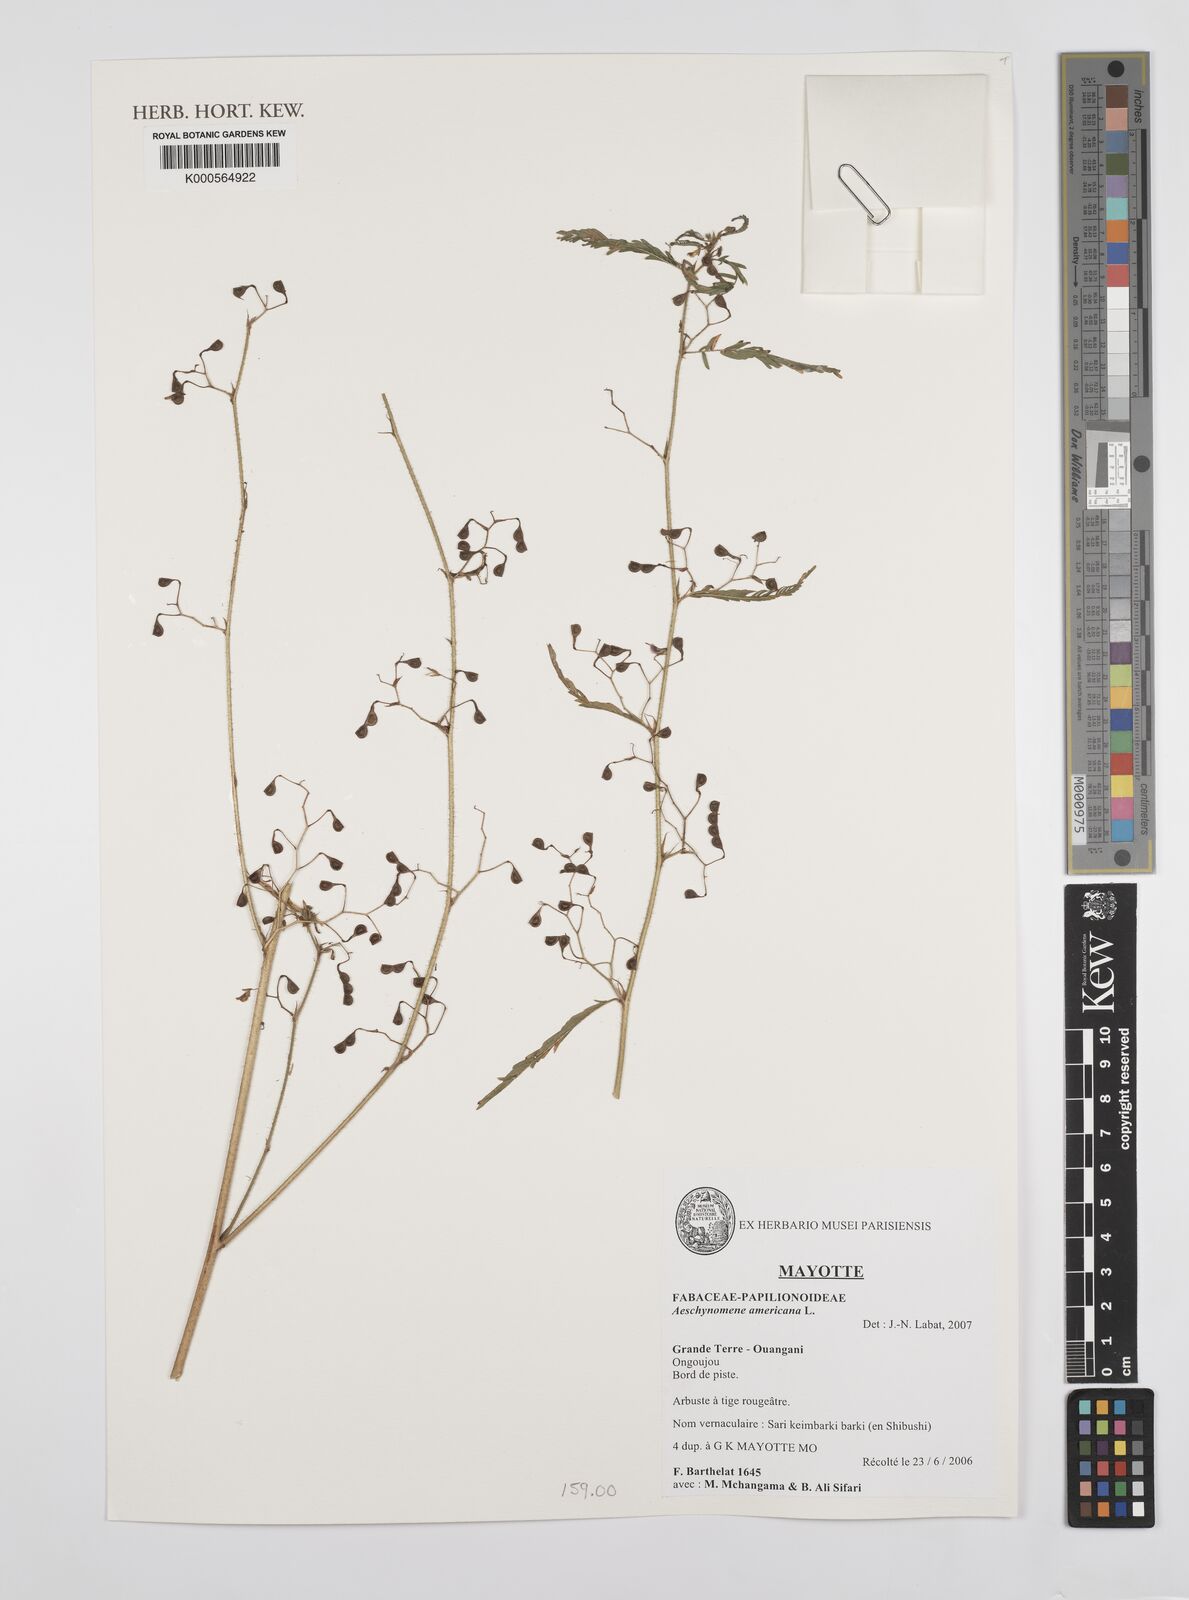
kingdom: Plantae
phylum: Tracheophyta
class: Magnoliopsida
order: Fabales
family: Fabaceae
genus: Aeschynomene
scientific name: Aeschynomene americana
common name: Joint-vetch
